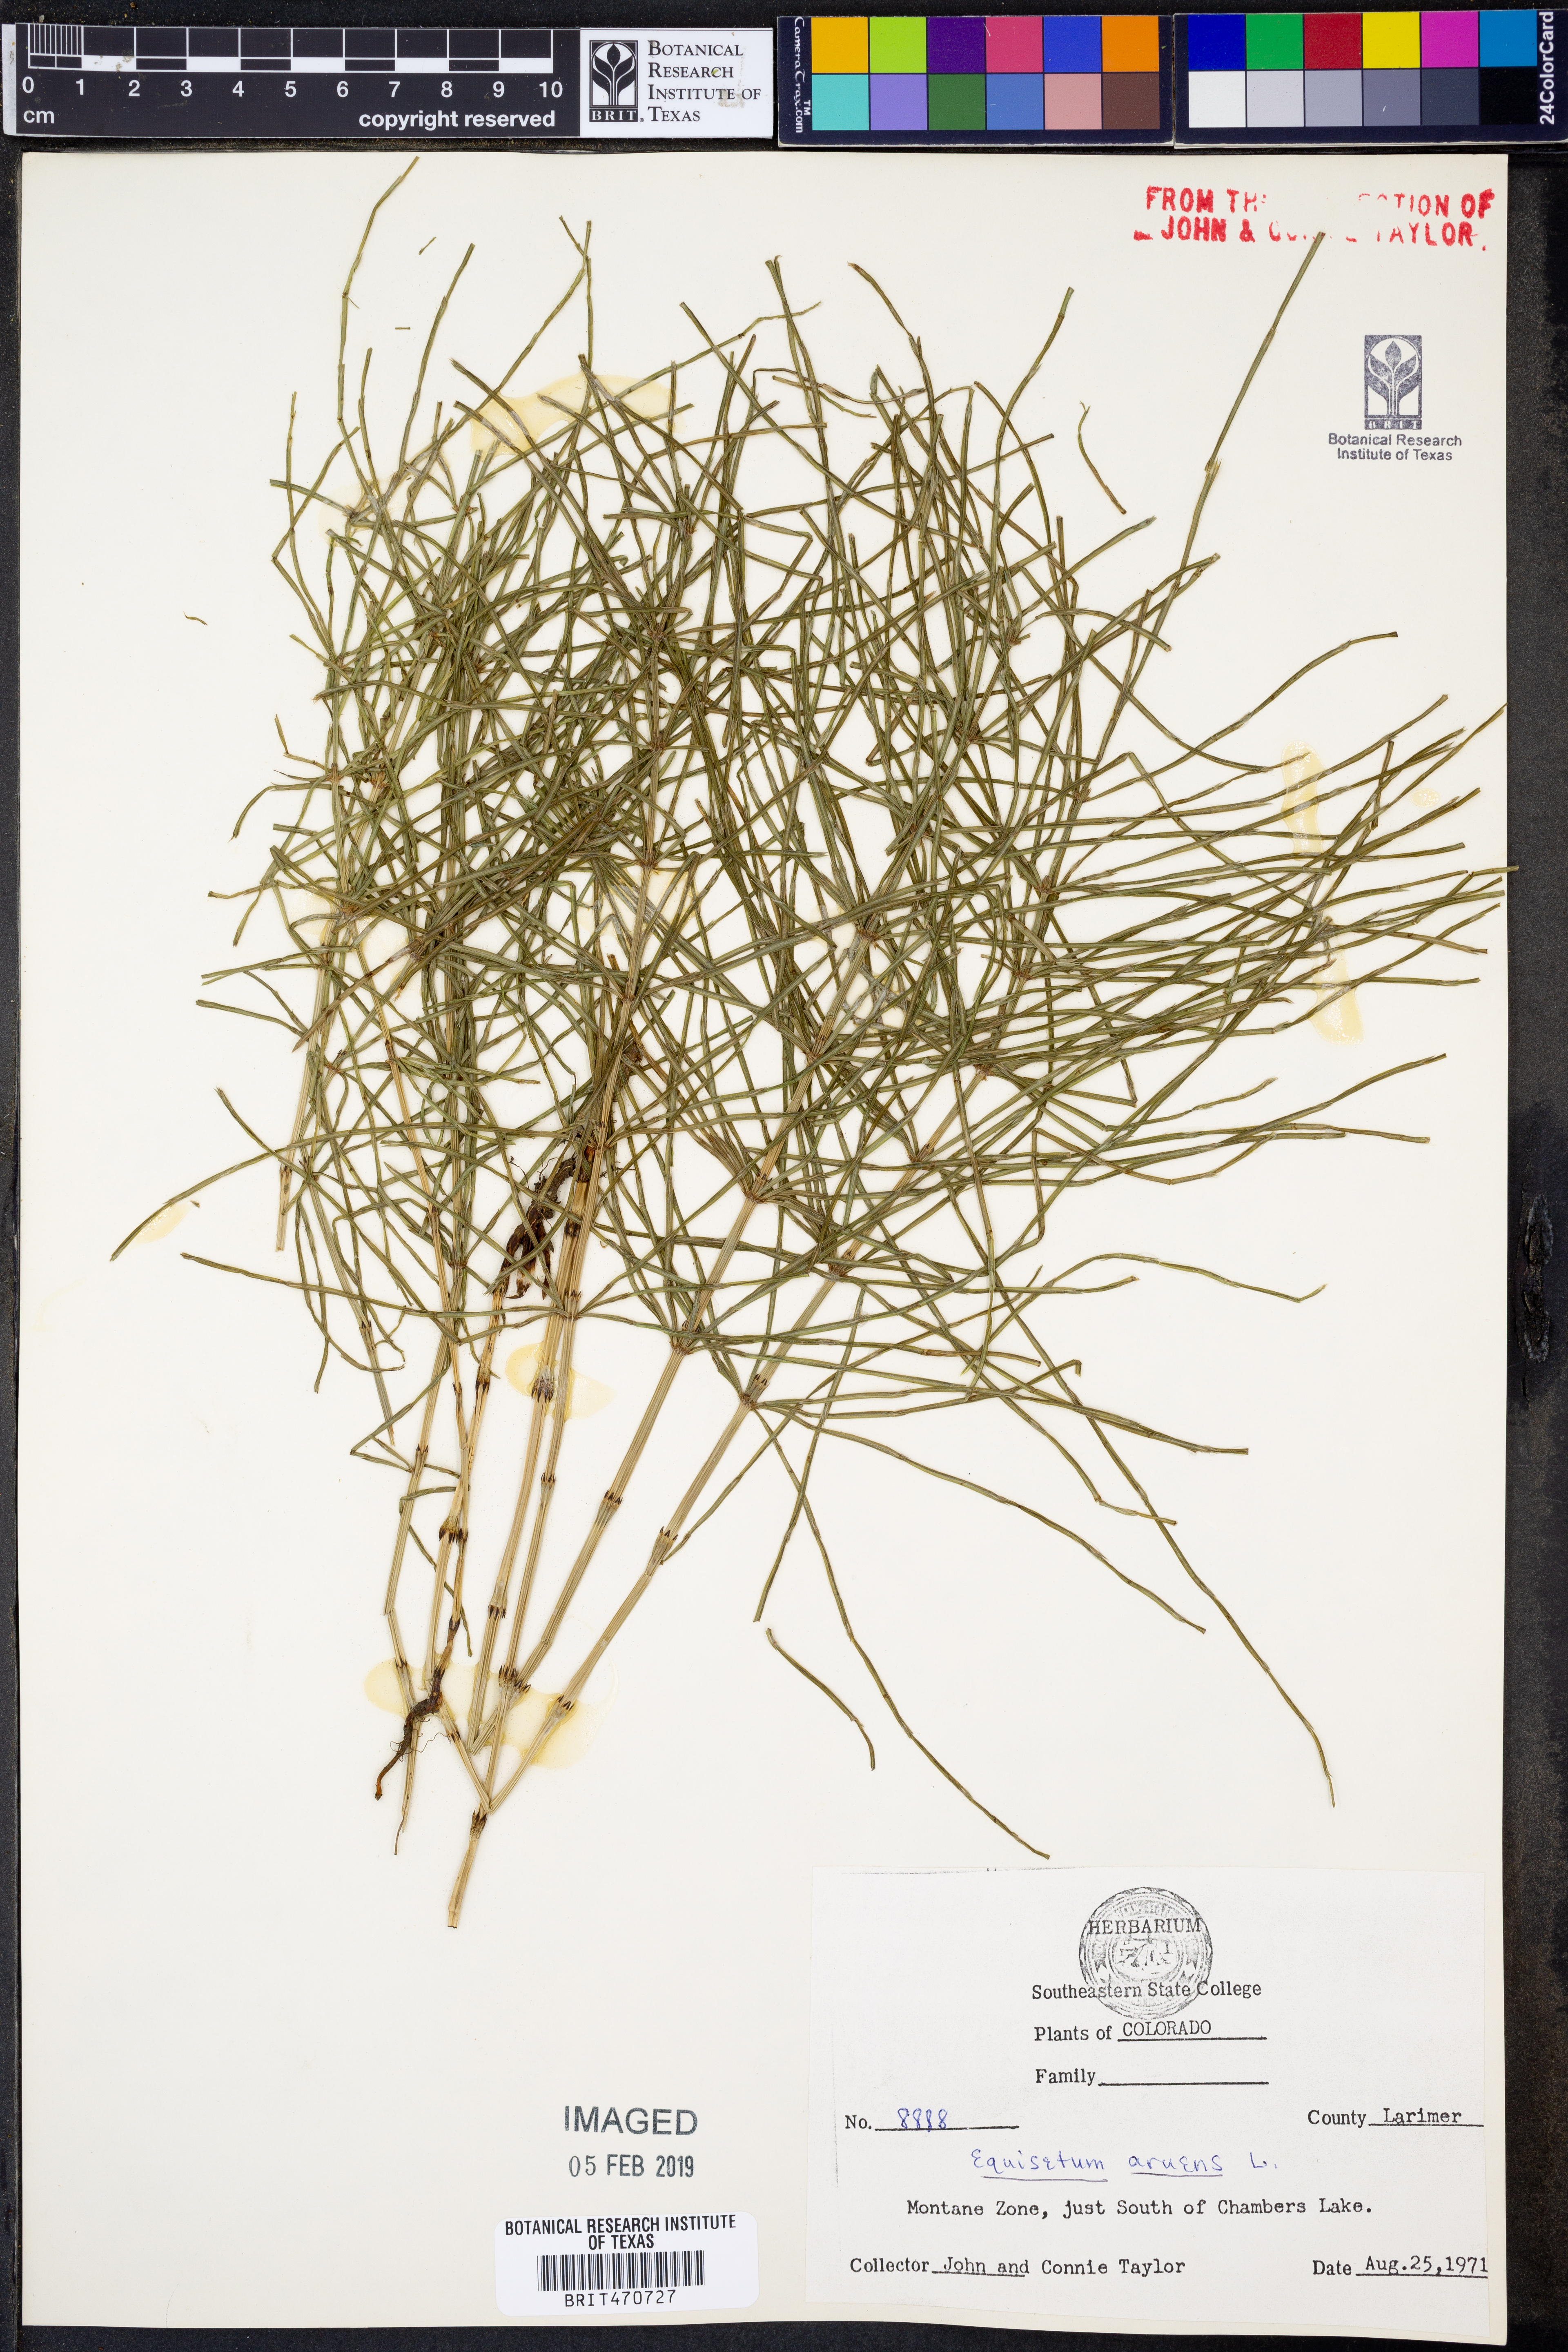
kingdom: Plantae
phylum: Tracheophyta
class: Polypodiopsida
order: Equisetales
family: Equisetaceae
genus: Equisetum
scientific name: Equisetum arvense
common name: Field horsetail
